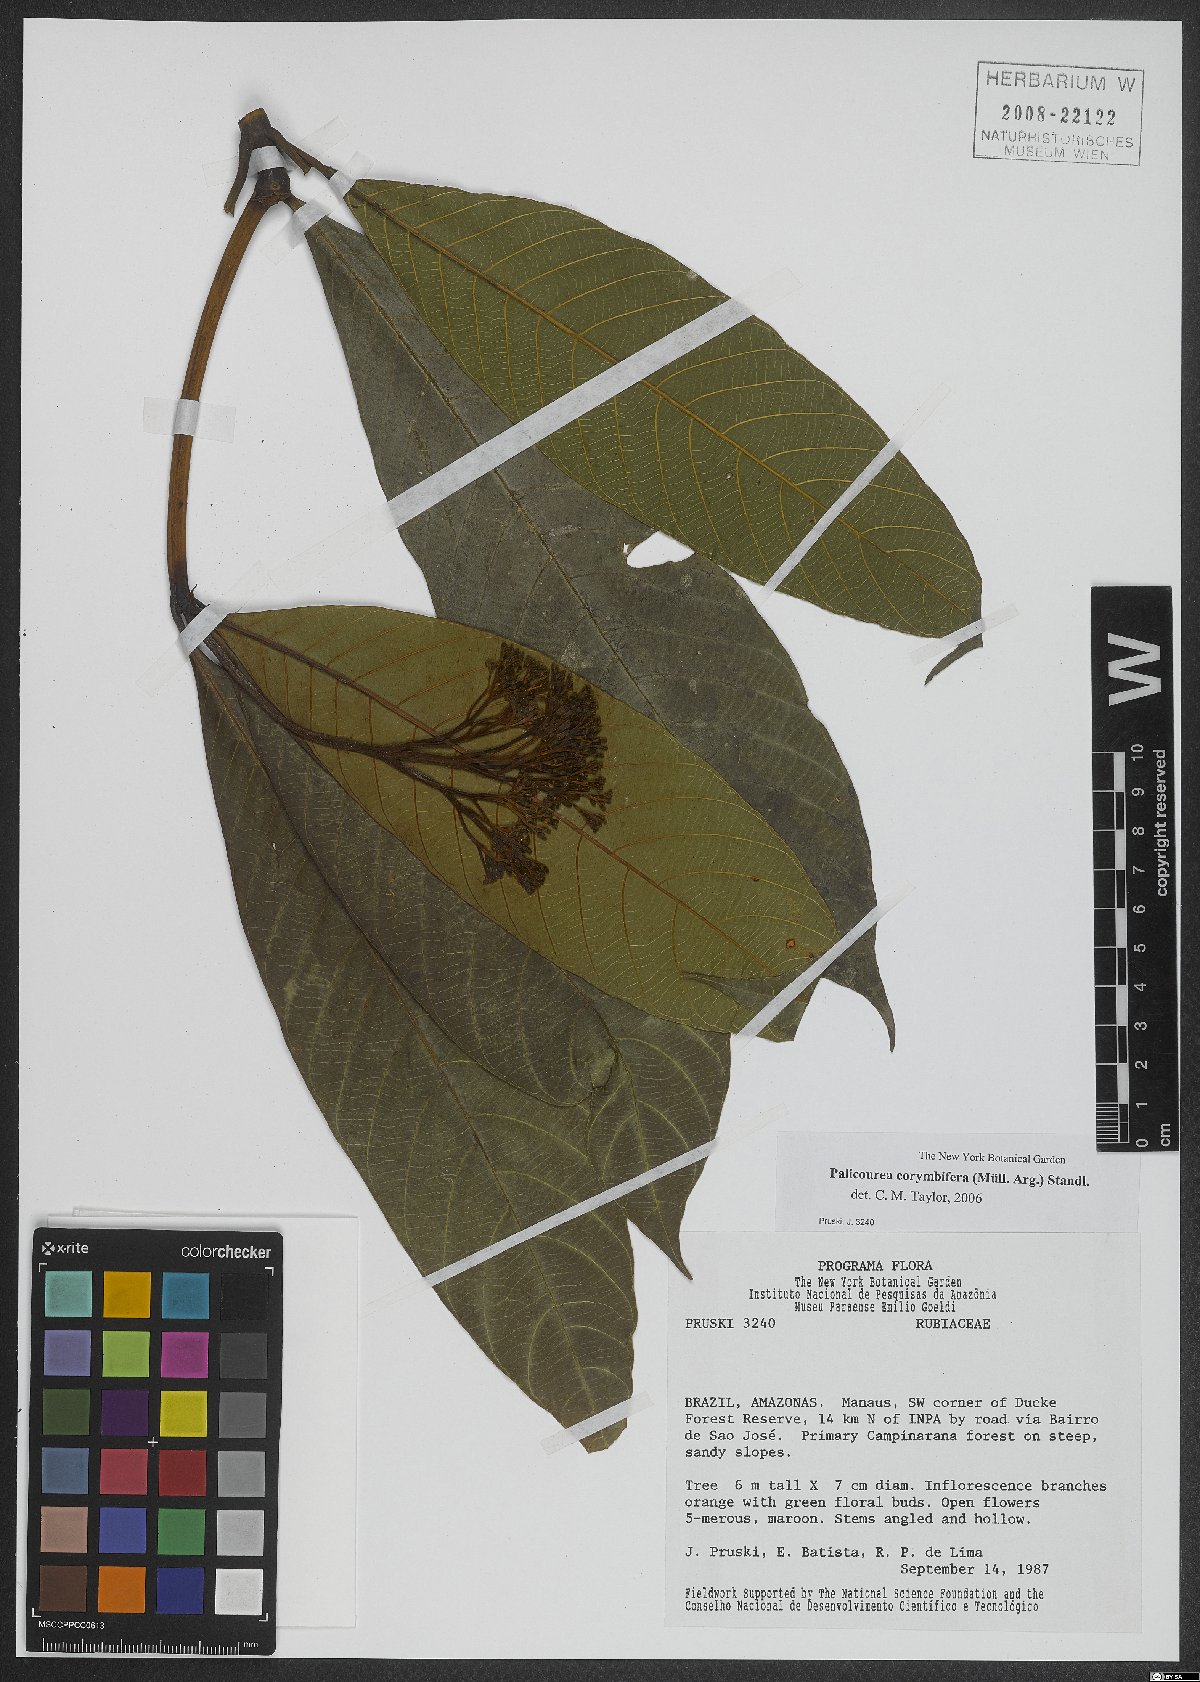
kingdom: Plantae
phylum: Tracheophyta
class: Magnoliopsida
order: Gentianales
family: Rubiaceae
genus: Palicourea
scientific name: Palicourea corymbifera
